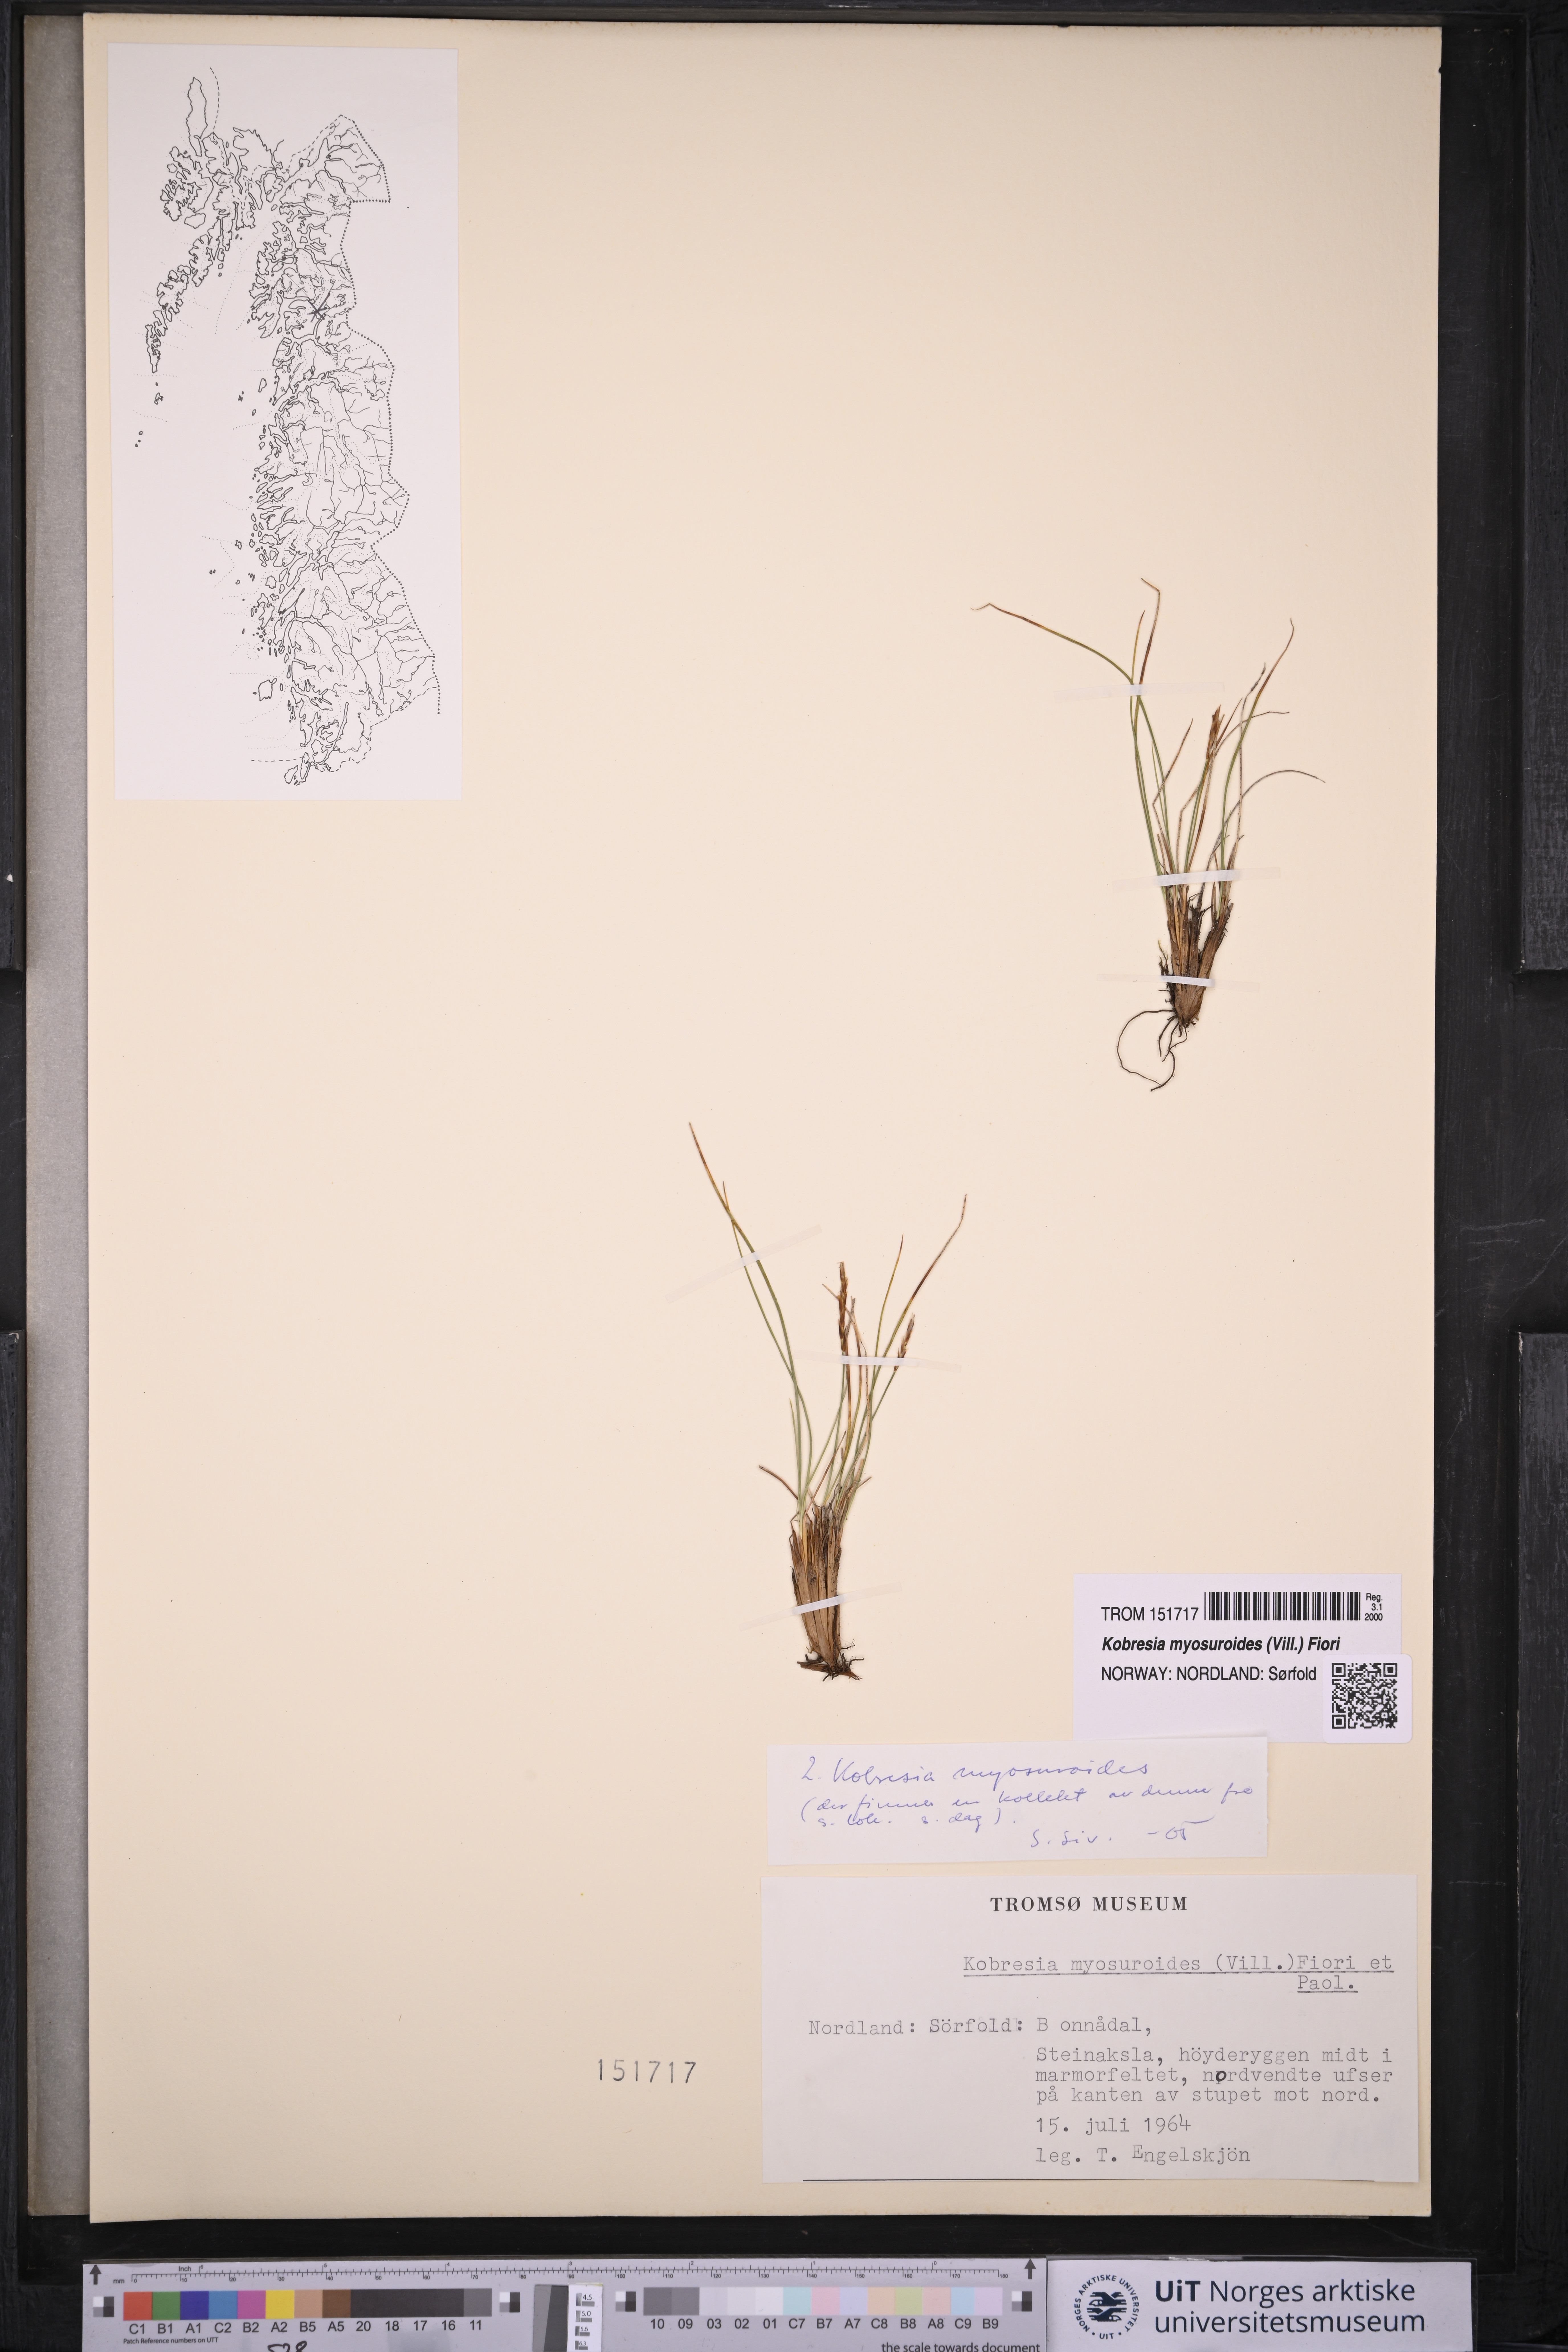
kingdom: Plantae
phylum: Tracheophyta
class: Liliopsida
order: Poales
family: Cyperaceae
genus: Carex
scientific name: Carex myosuroides
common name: Bellard's bog sedge
